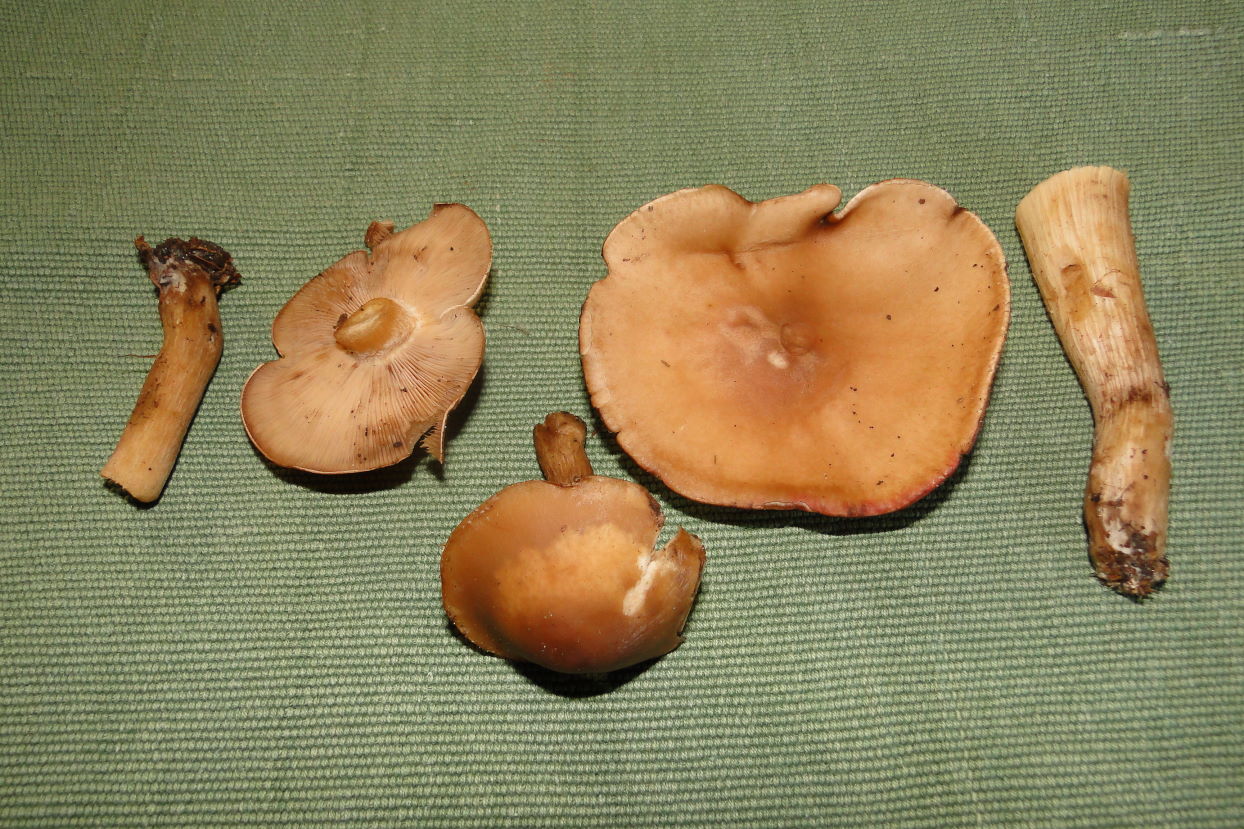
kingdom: Fungi
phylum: Basidiomycota
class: Agaricomycetes
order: Agaricales
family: Tricholomataceae
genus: Lepista
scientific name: Lepista irina
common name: violduftende hekseringshat
